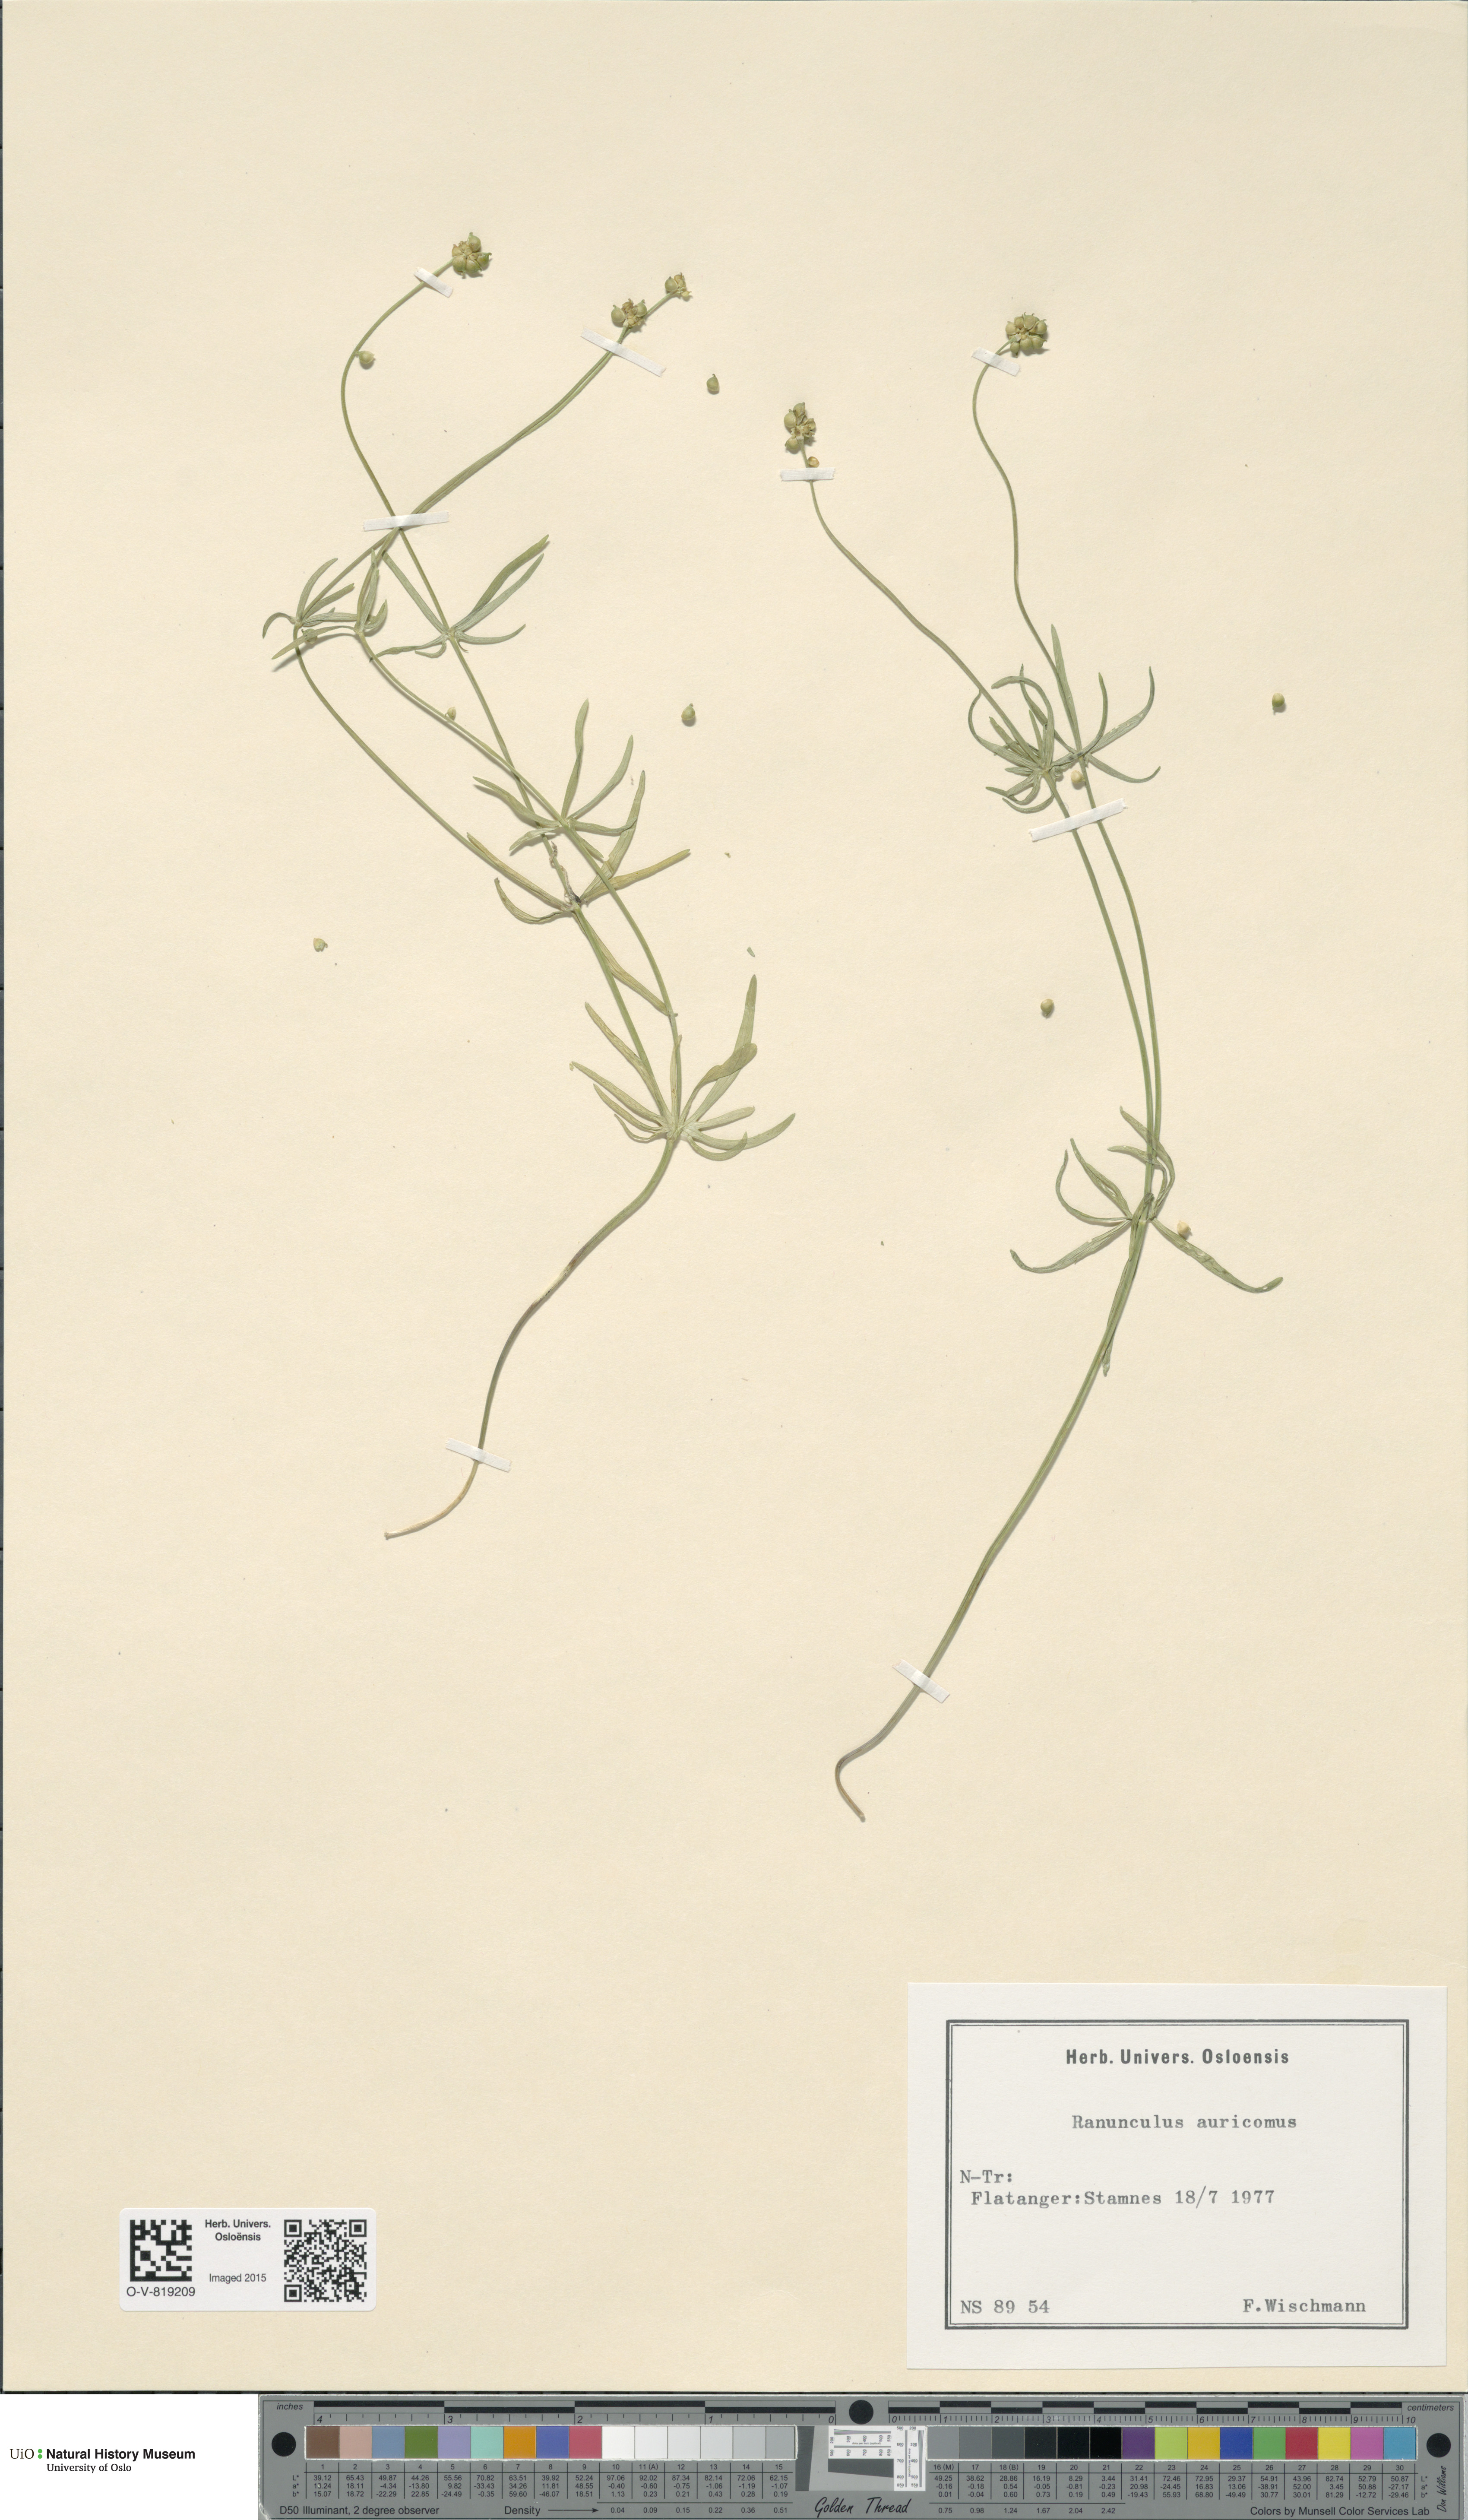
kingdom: Plantae
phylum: Tracheophyta
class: Magnoliopsida
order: Ranunculales
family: Ranunculaceae
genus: Ranunculus
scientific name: Ranunculus auricomus
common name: Goldilocks buttercup
